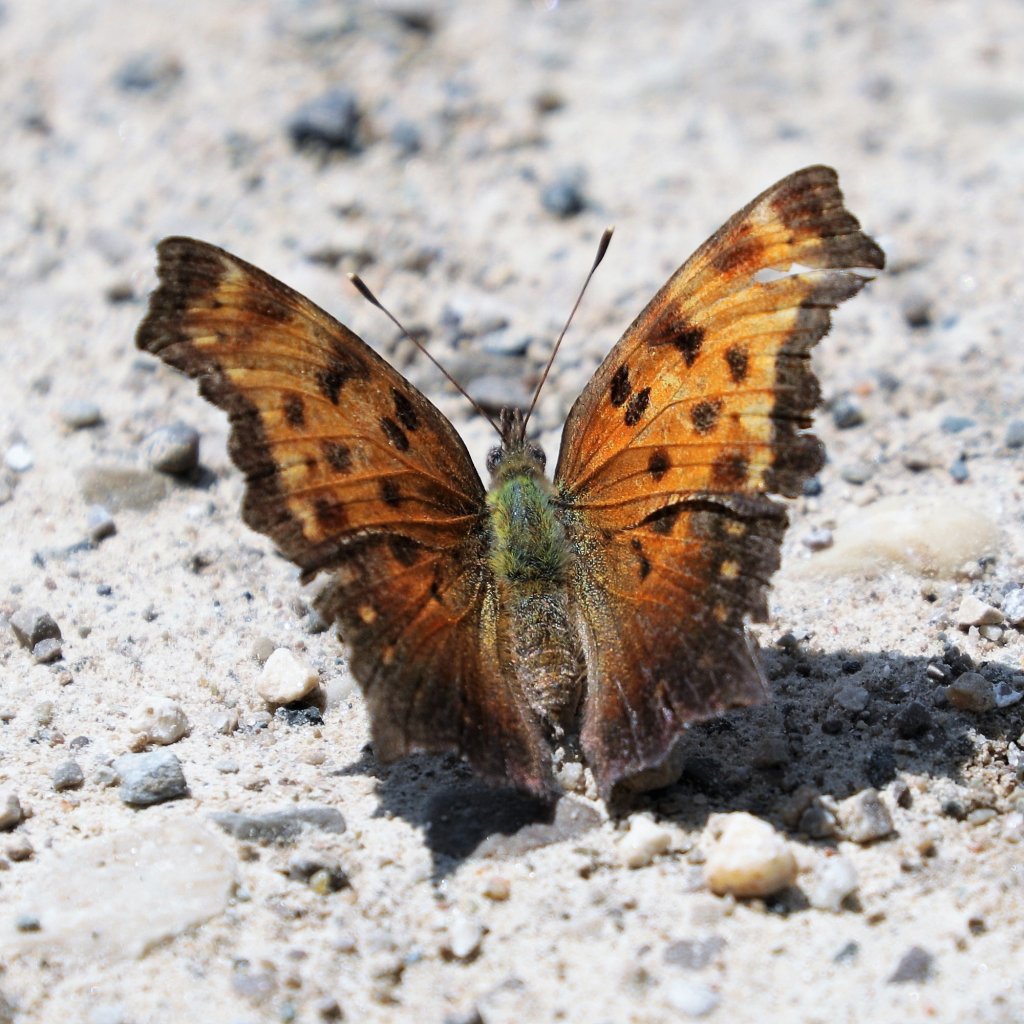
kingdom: Animalia
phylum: Arthropoda
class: Insecta
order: Lepidoptera
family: Nymphalidae
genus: Polygonia
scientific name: Polygonia progne
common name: Gray Comma
